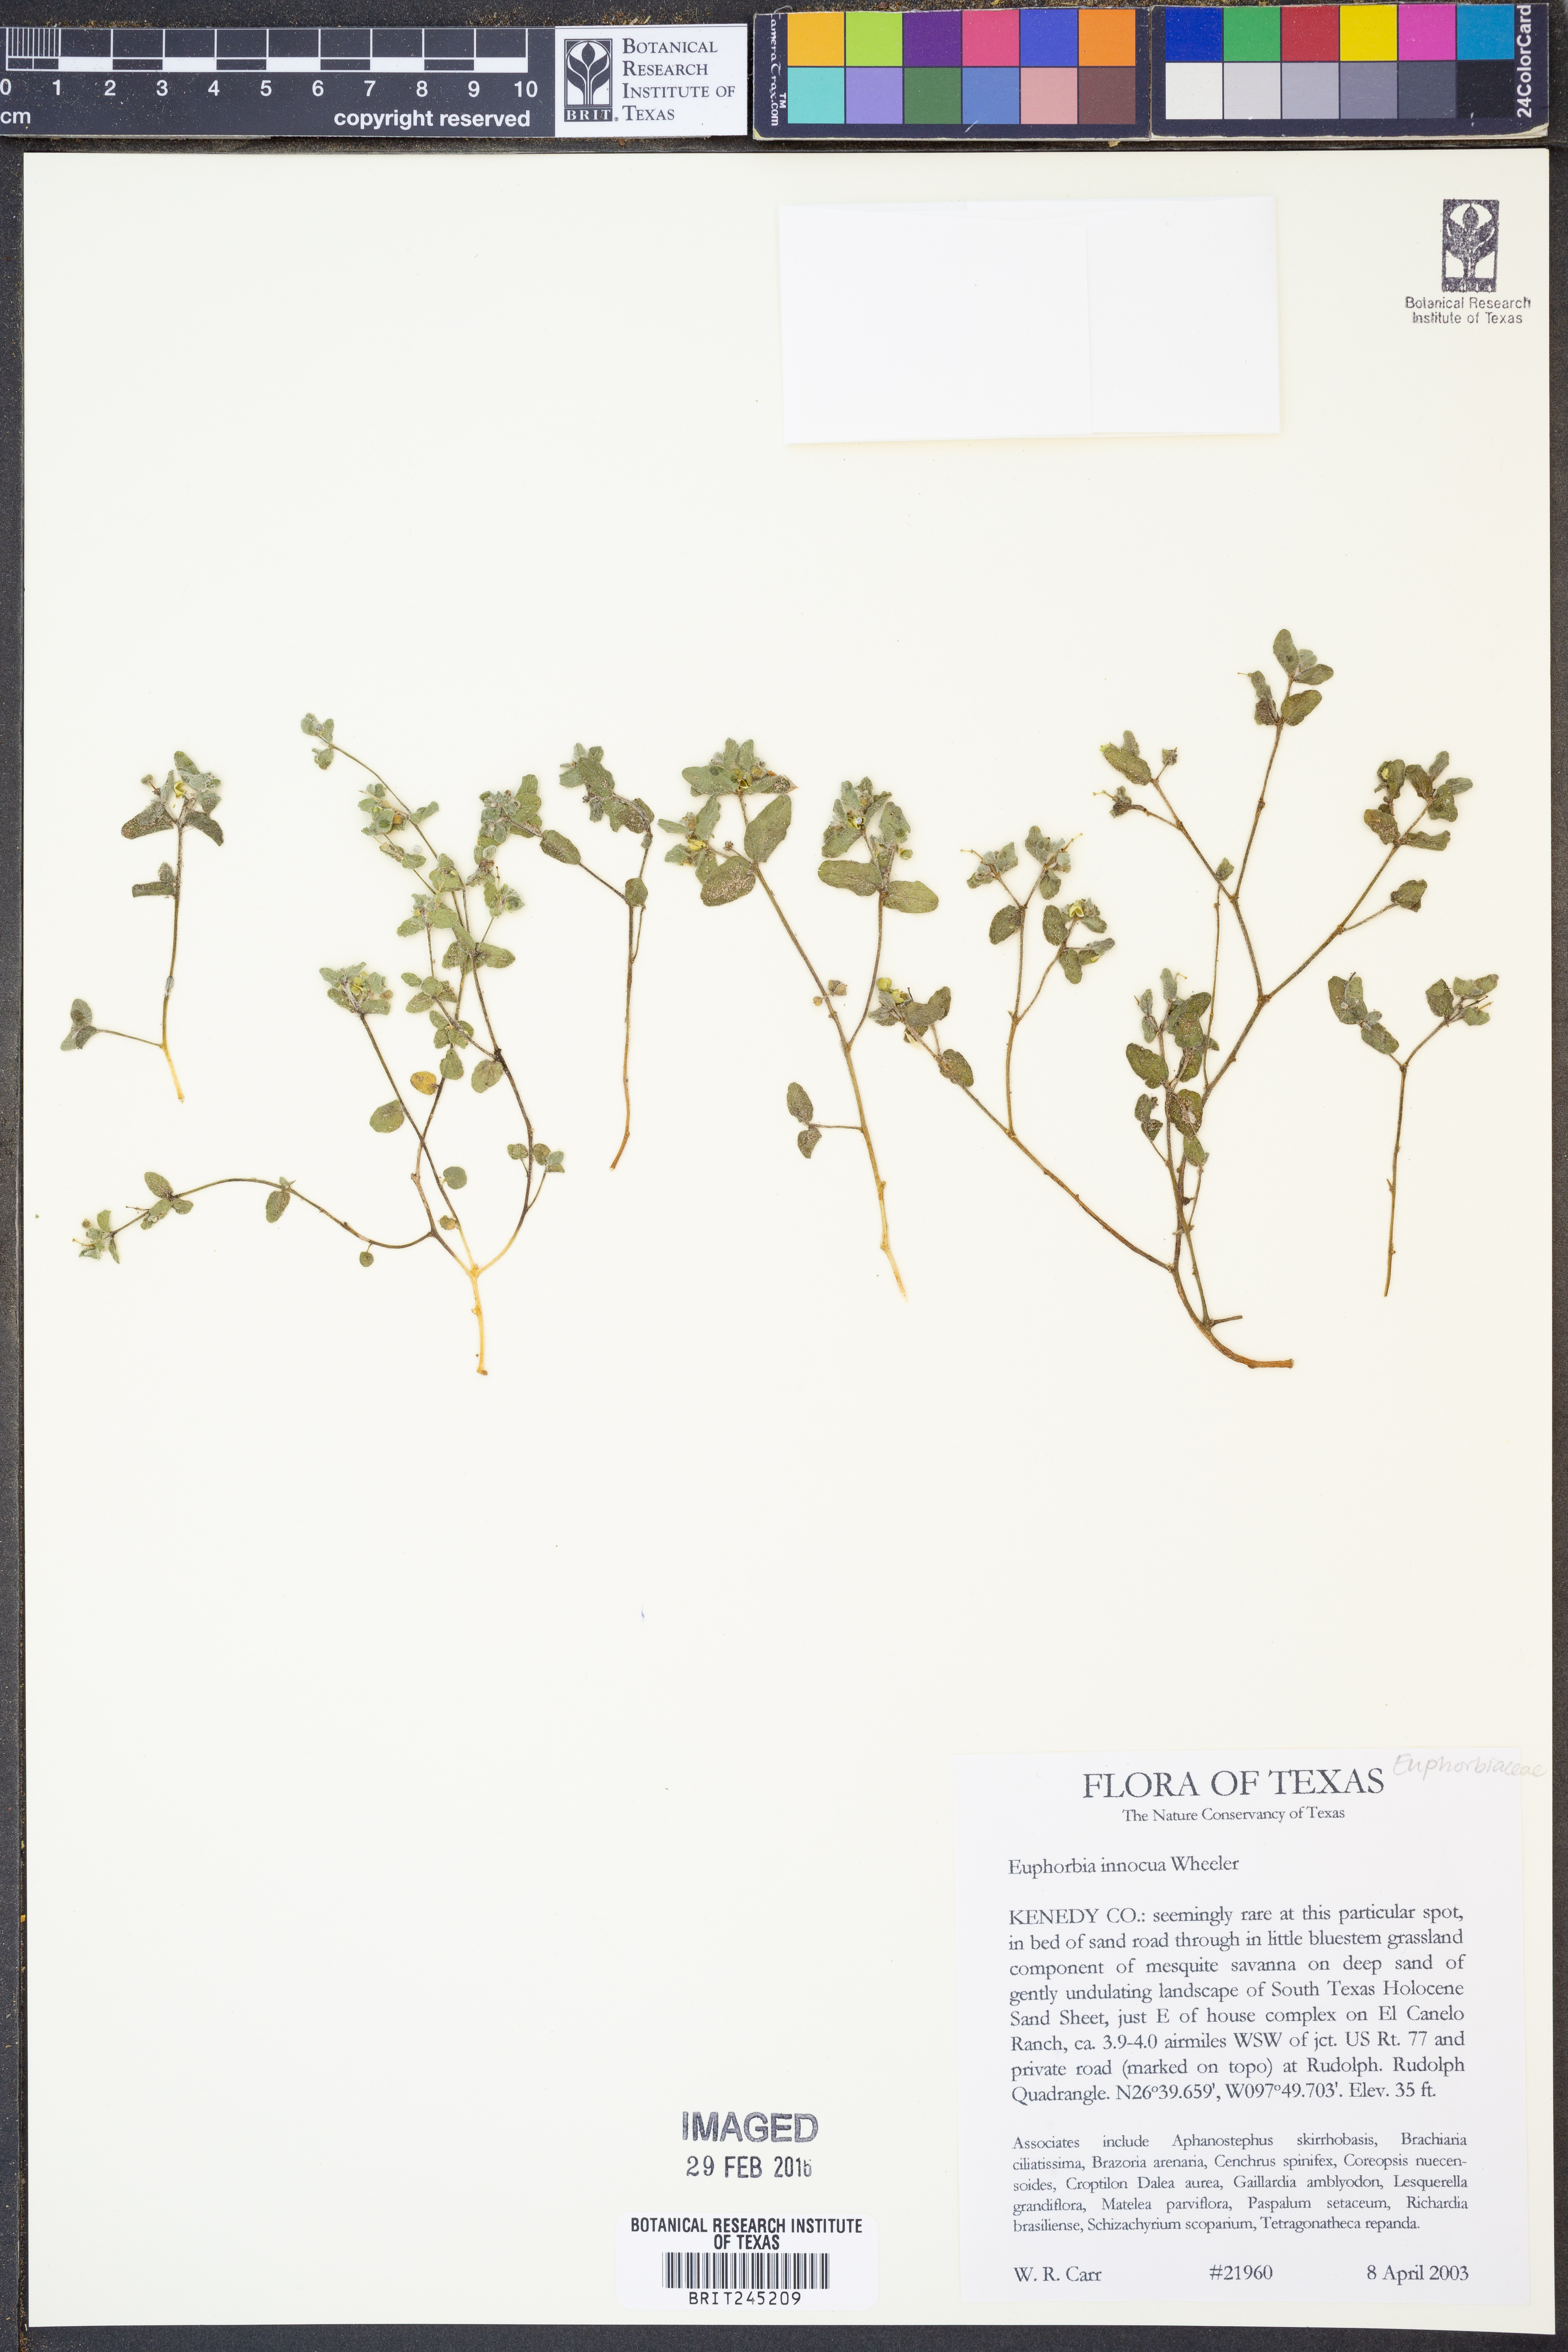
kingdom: Plantae
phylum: Tracheophyta
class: Magnoliopsida
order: Malpighiales
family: Euphorbiaceae
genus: Euphorbia
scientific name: Euphorbia innocua
